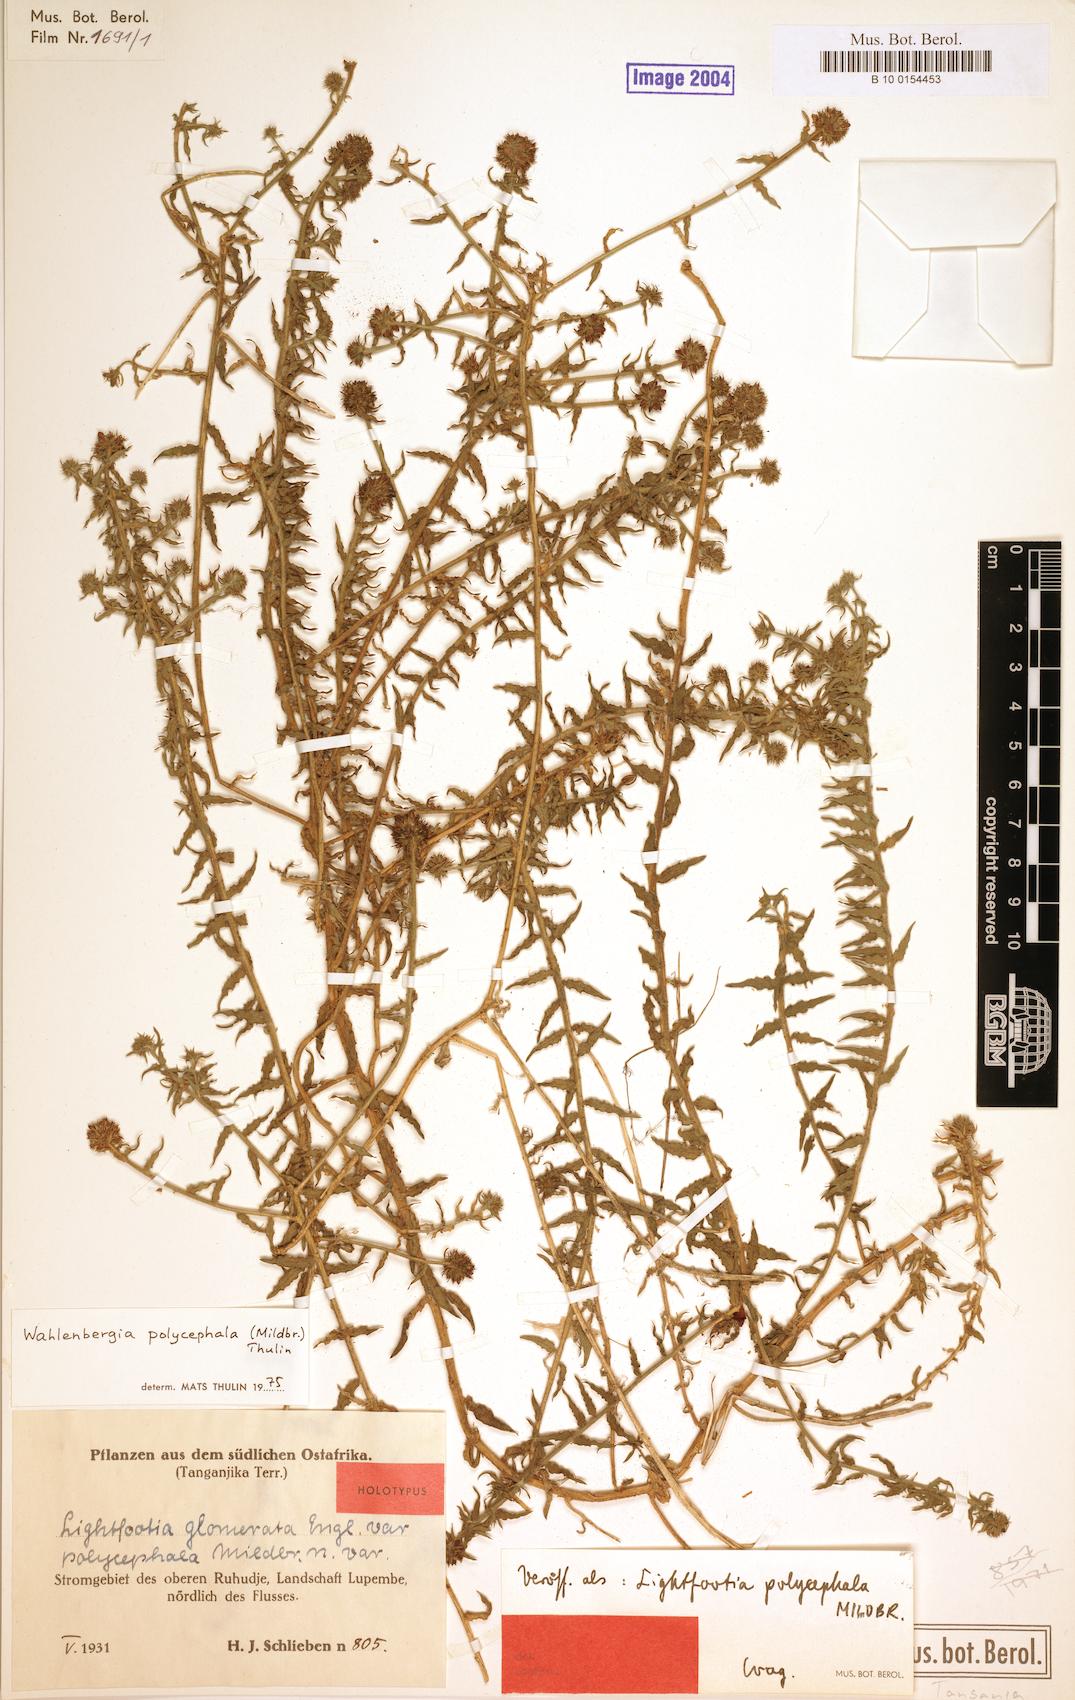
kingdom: Plantae
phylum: Tracheophyta
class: Magnoliopsida
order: Asterales
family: Campanulaceae
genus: Wahlenbergia
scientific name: Wahlenbergia polycephala
